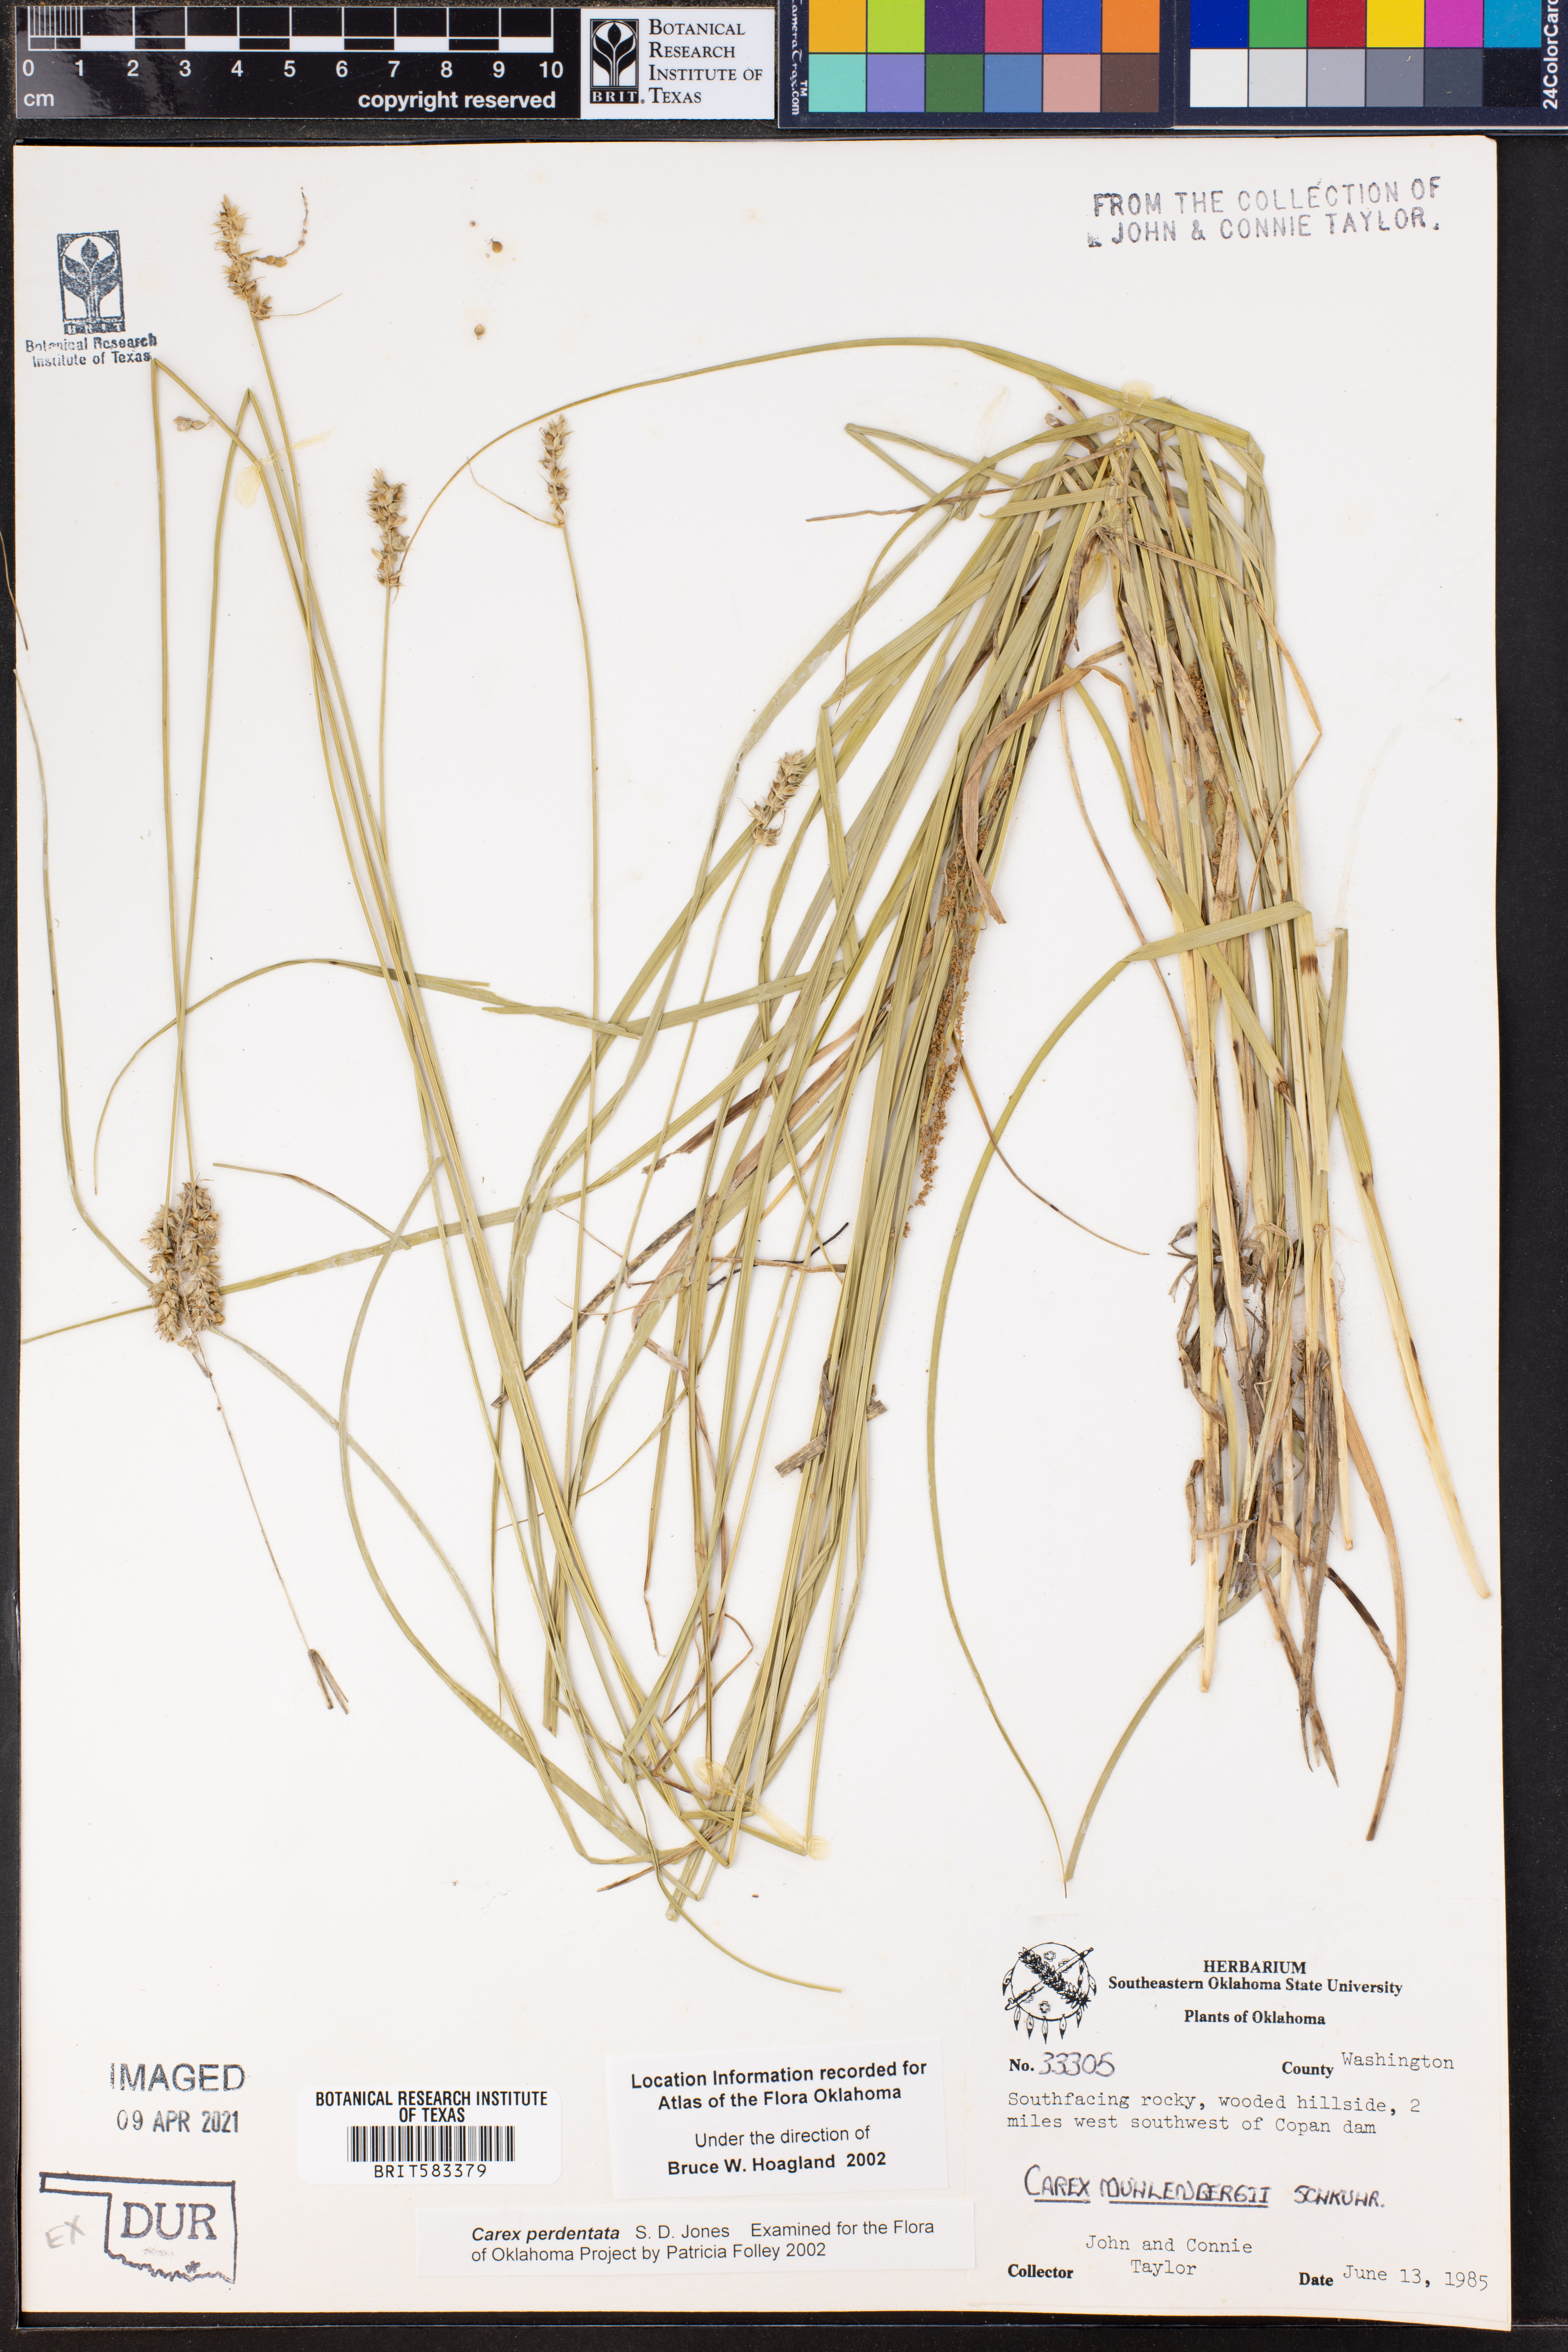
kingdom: Plantae
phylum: Tracheophyta
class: Liliopsida
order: Poales
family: Cyperaceae
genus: Carex
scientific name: Carex perdentata
